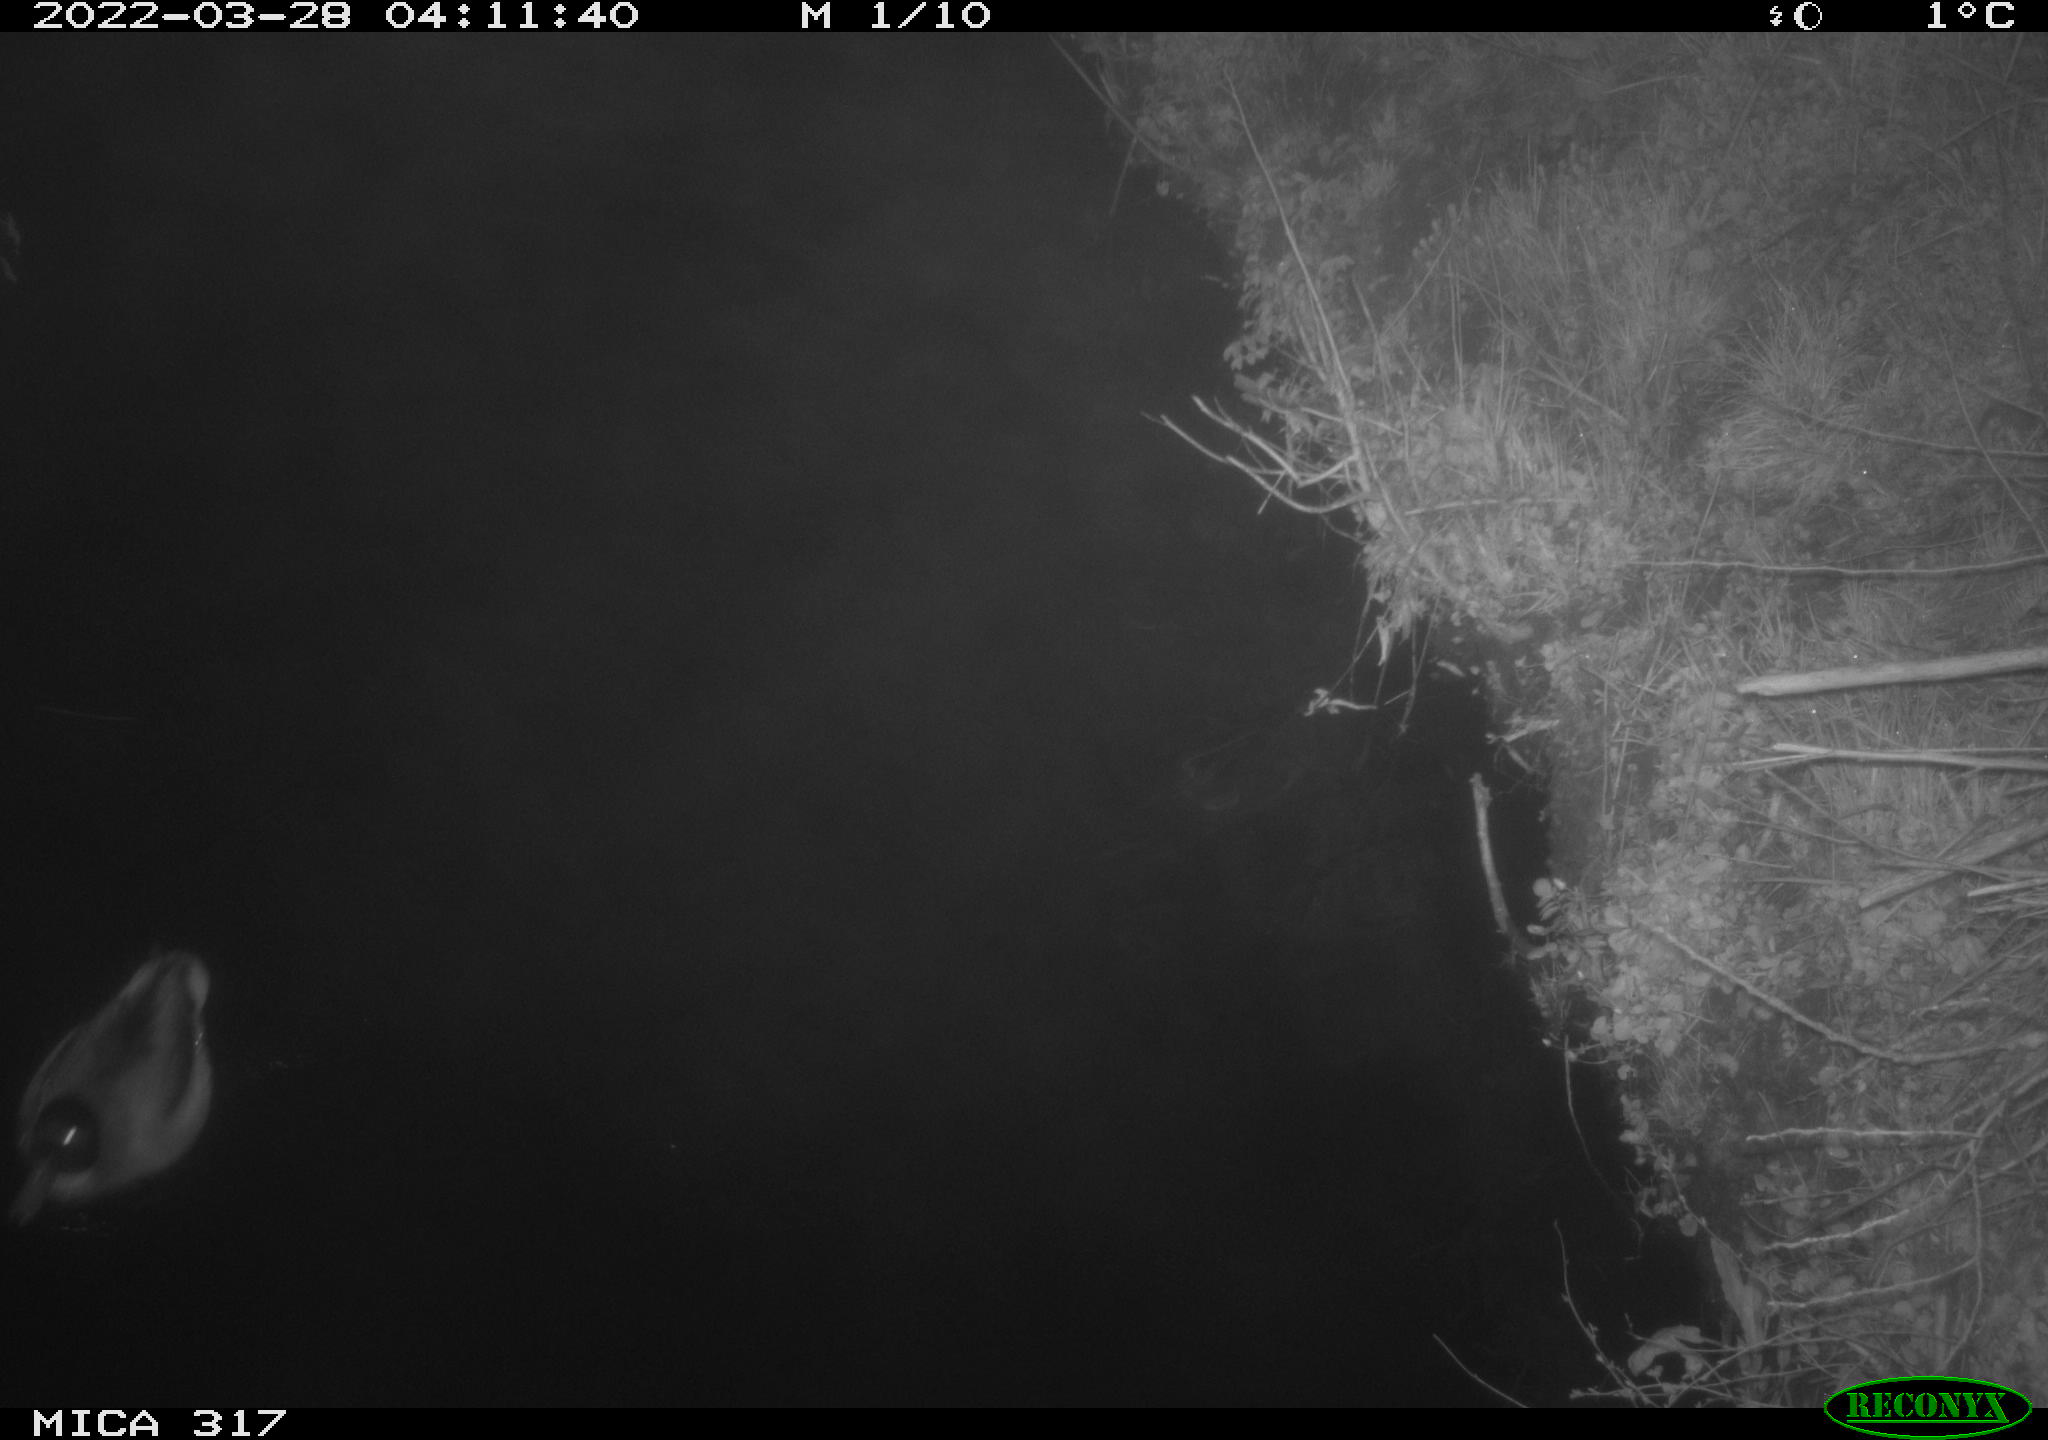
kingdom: Animalia
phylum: Chordata
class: Aves
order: Anseriformes
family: Anatidae
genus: Anas
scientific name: Anas platyrhynchos
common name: Mallard
